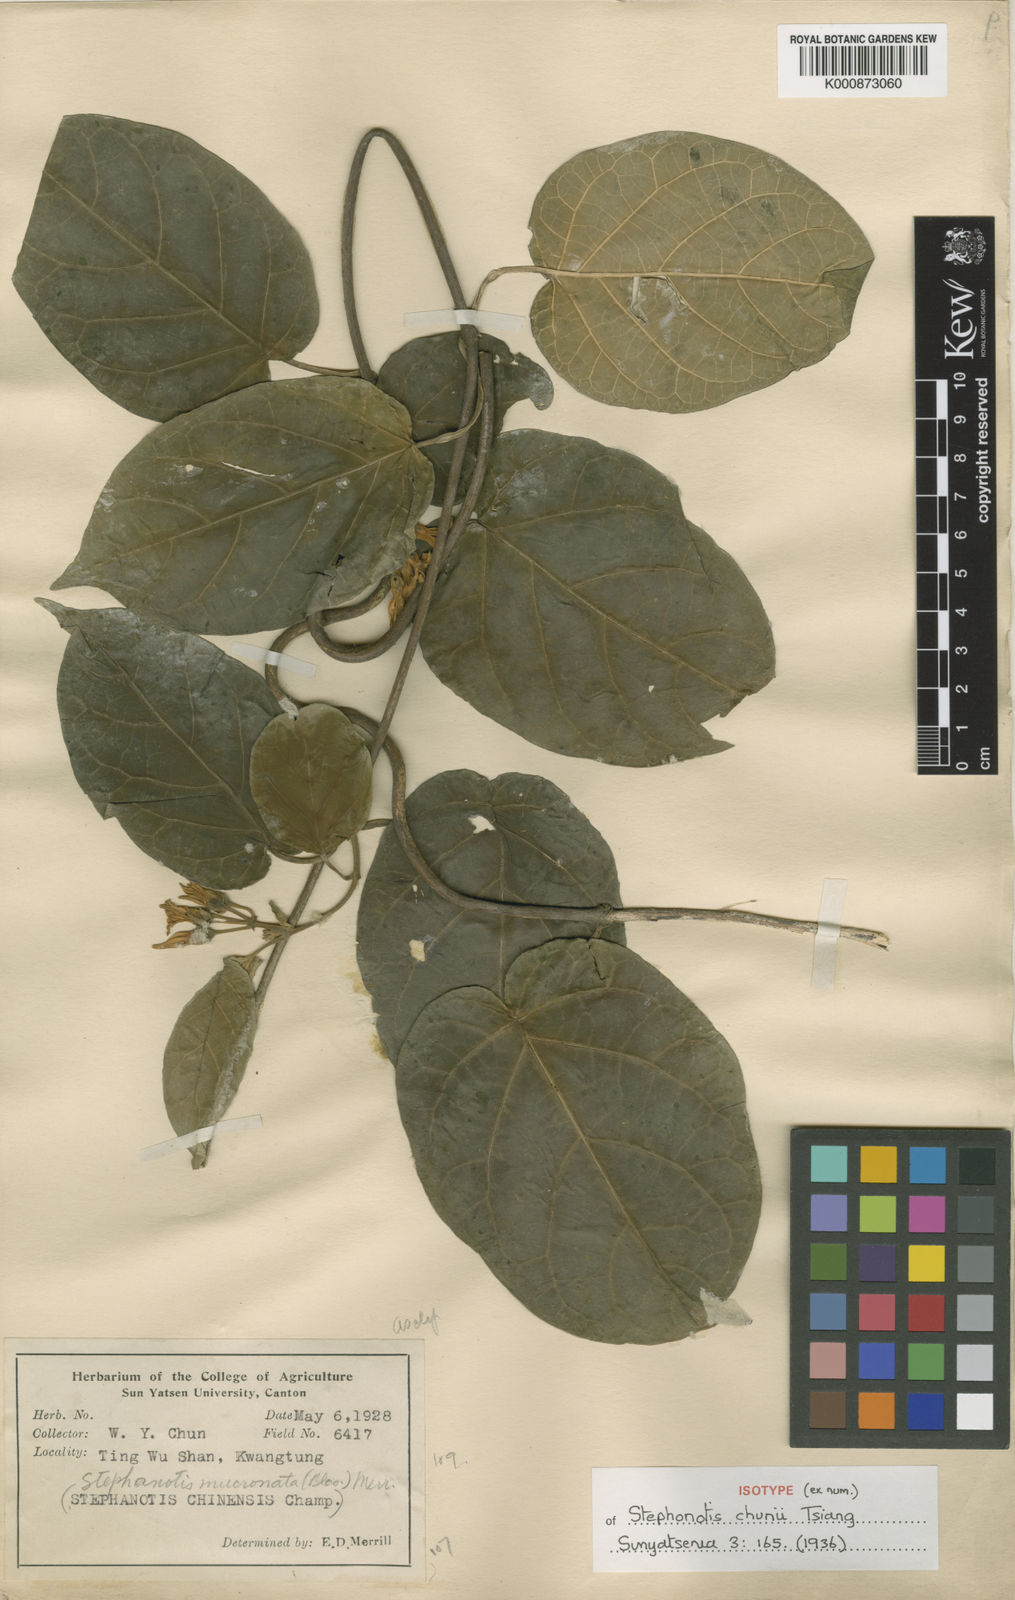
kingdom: Plantae
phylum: Tracheophyta
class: Magnoliopsida
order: Gentianales
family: Apocynaceae
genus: Jasminanthes
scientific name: Jasminanthes chunii
